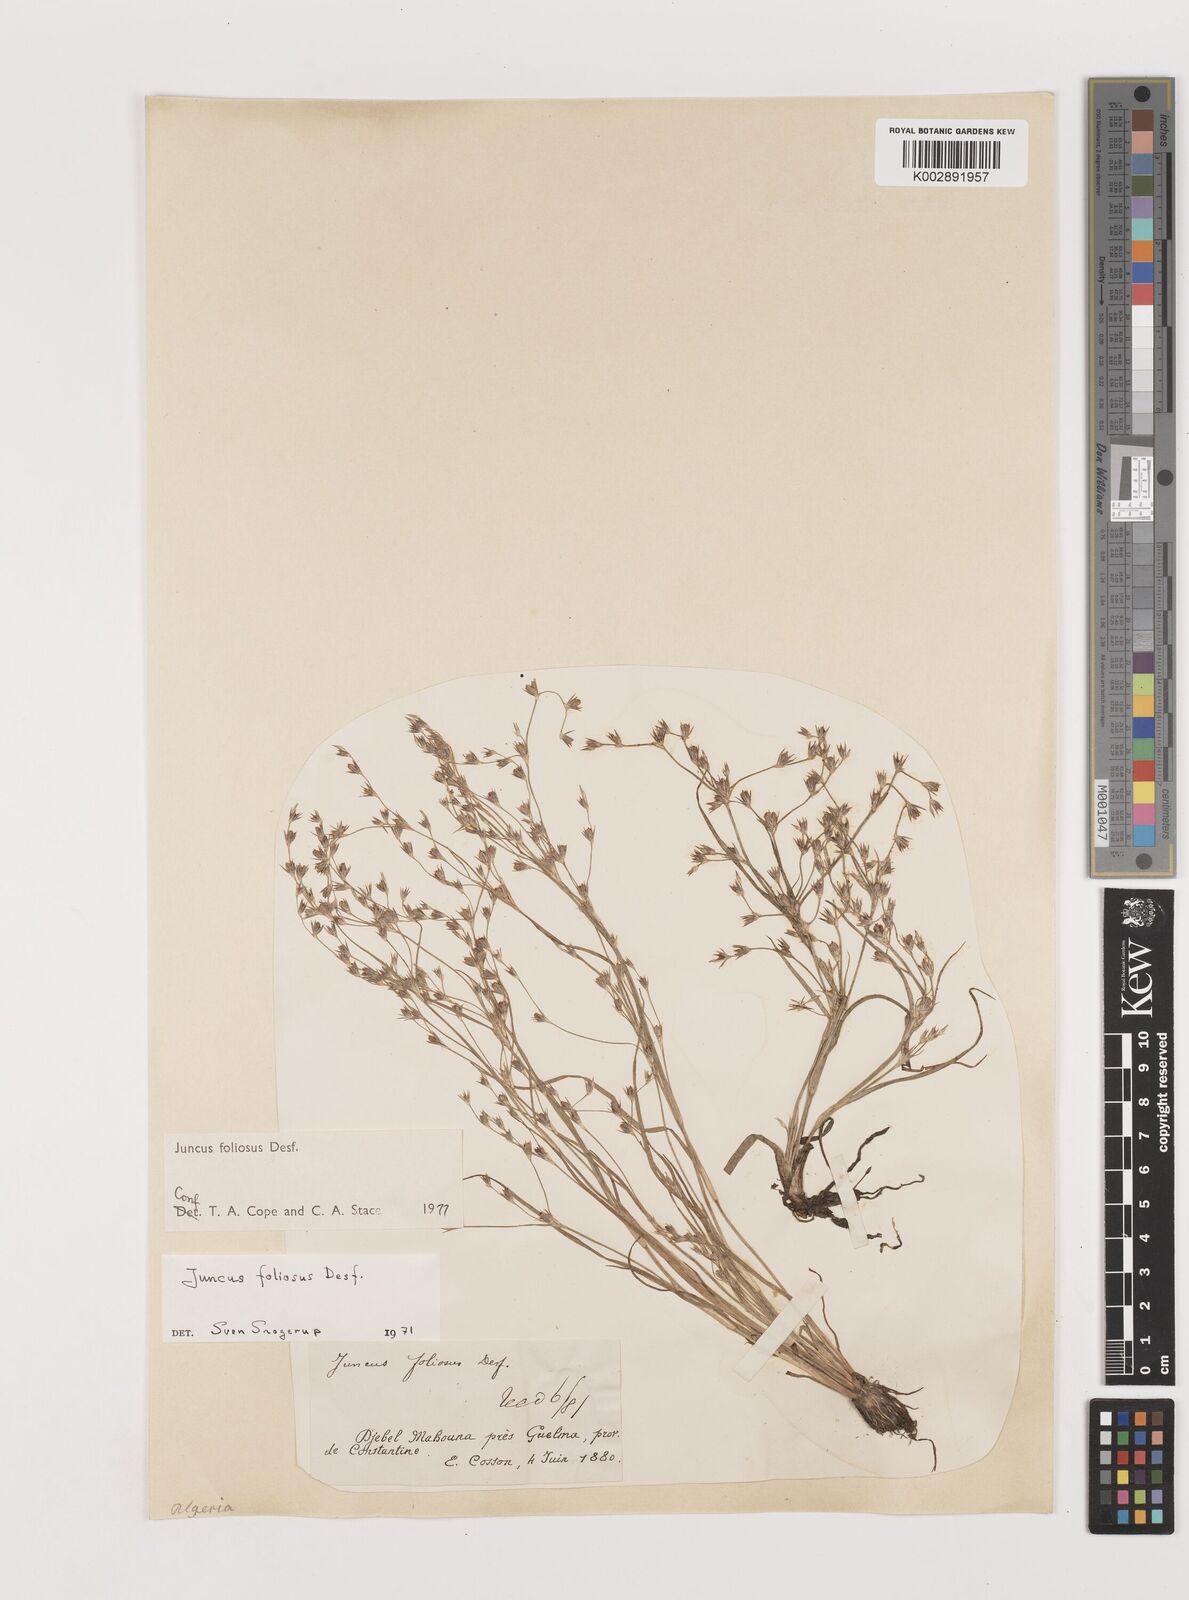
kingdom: Plantae
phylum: Tracheophyta
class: Liliopsida
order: Poales
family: Juncaceae
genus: Juncus
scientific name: Juncus acutiflorus
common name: Sharp-flowered rush
